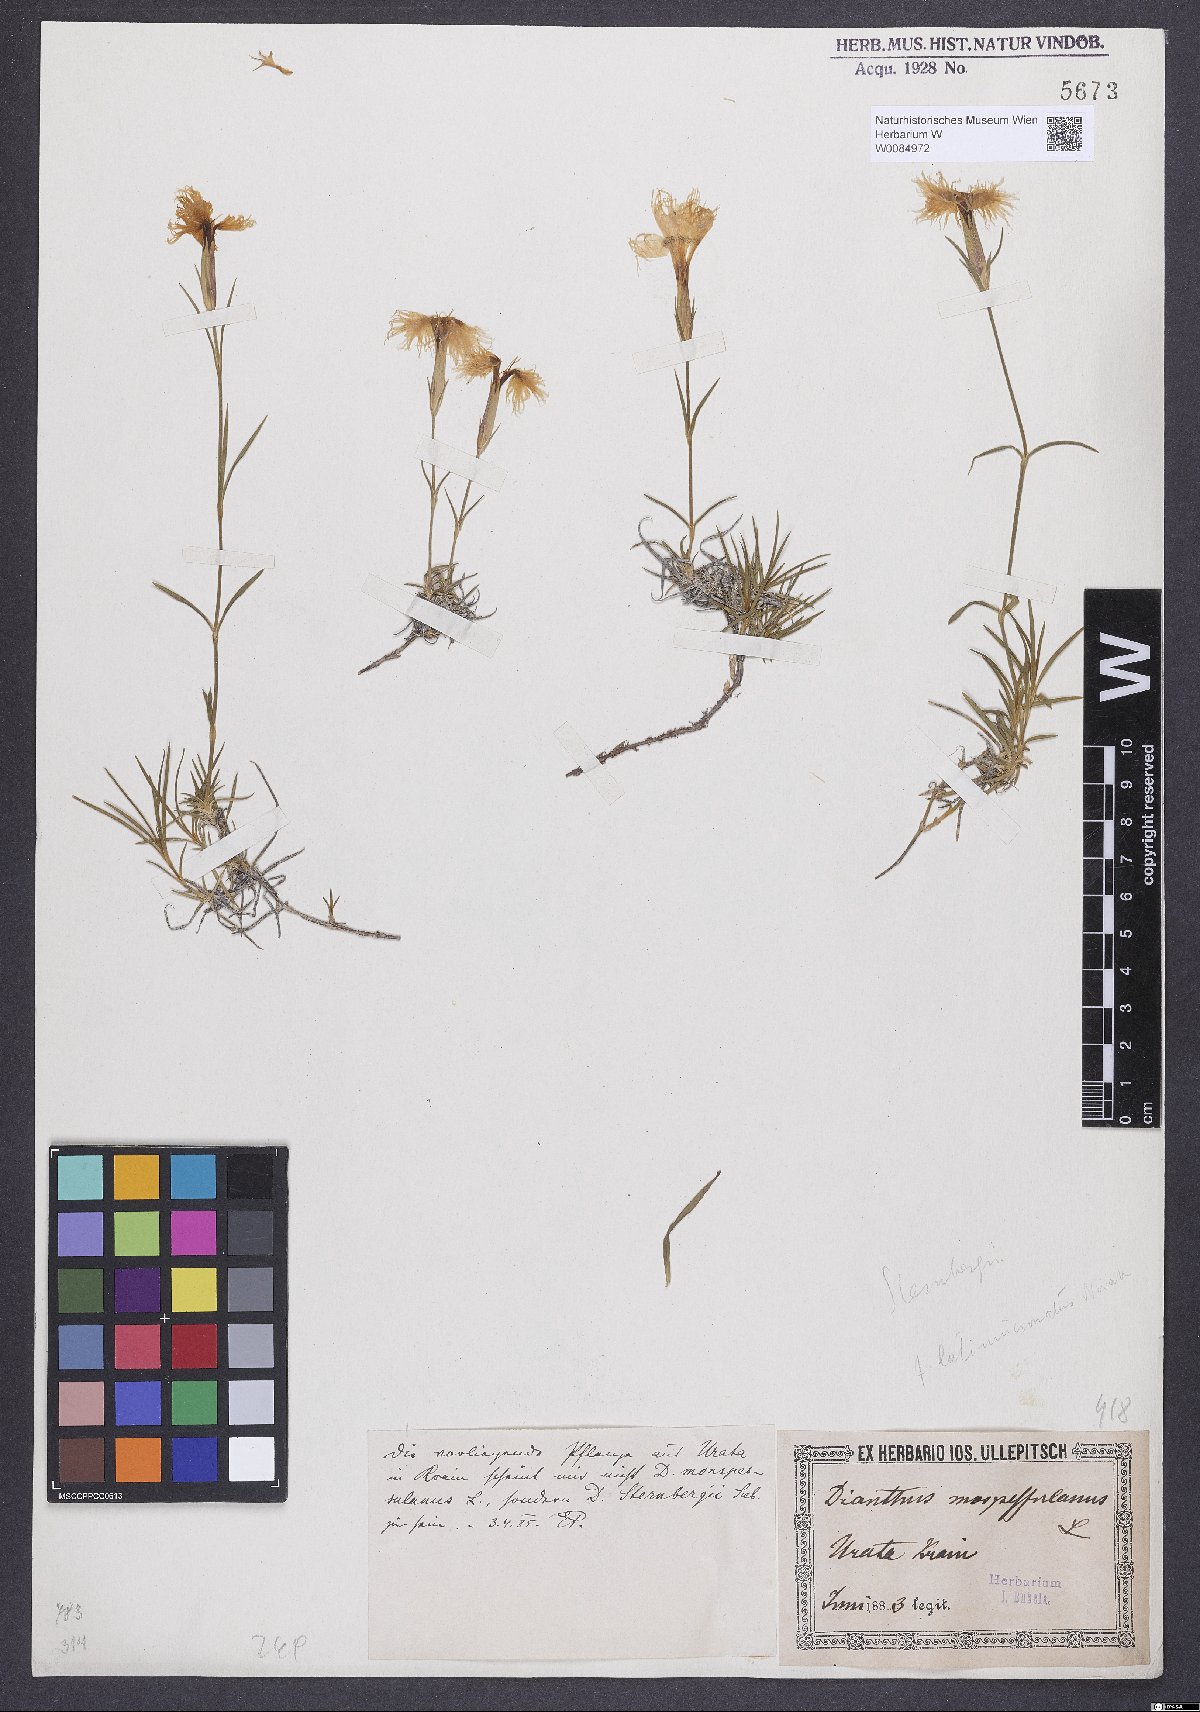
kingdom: Plantae
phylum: Tracheophyta
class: Magnoliopsida
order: Caryophyllales
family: Caryophyllaceae
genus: Dianthus
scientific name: Dianthus hyssopifolius
